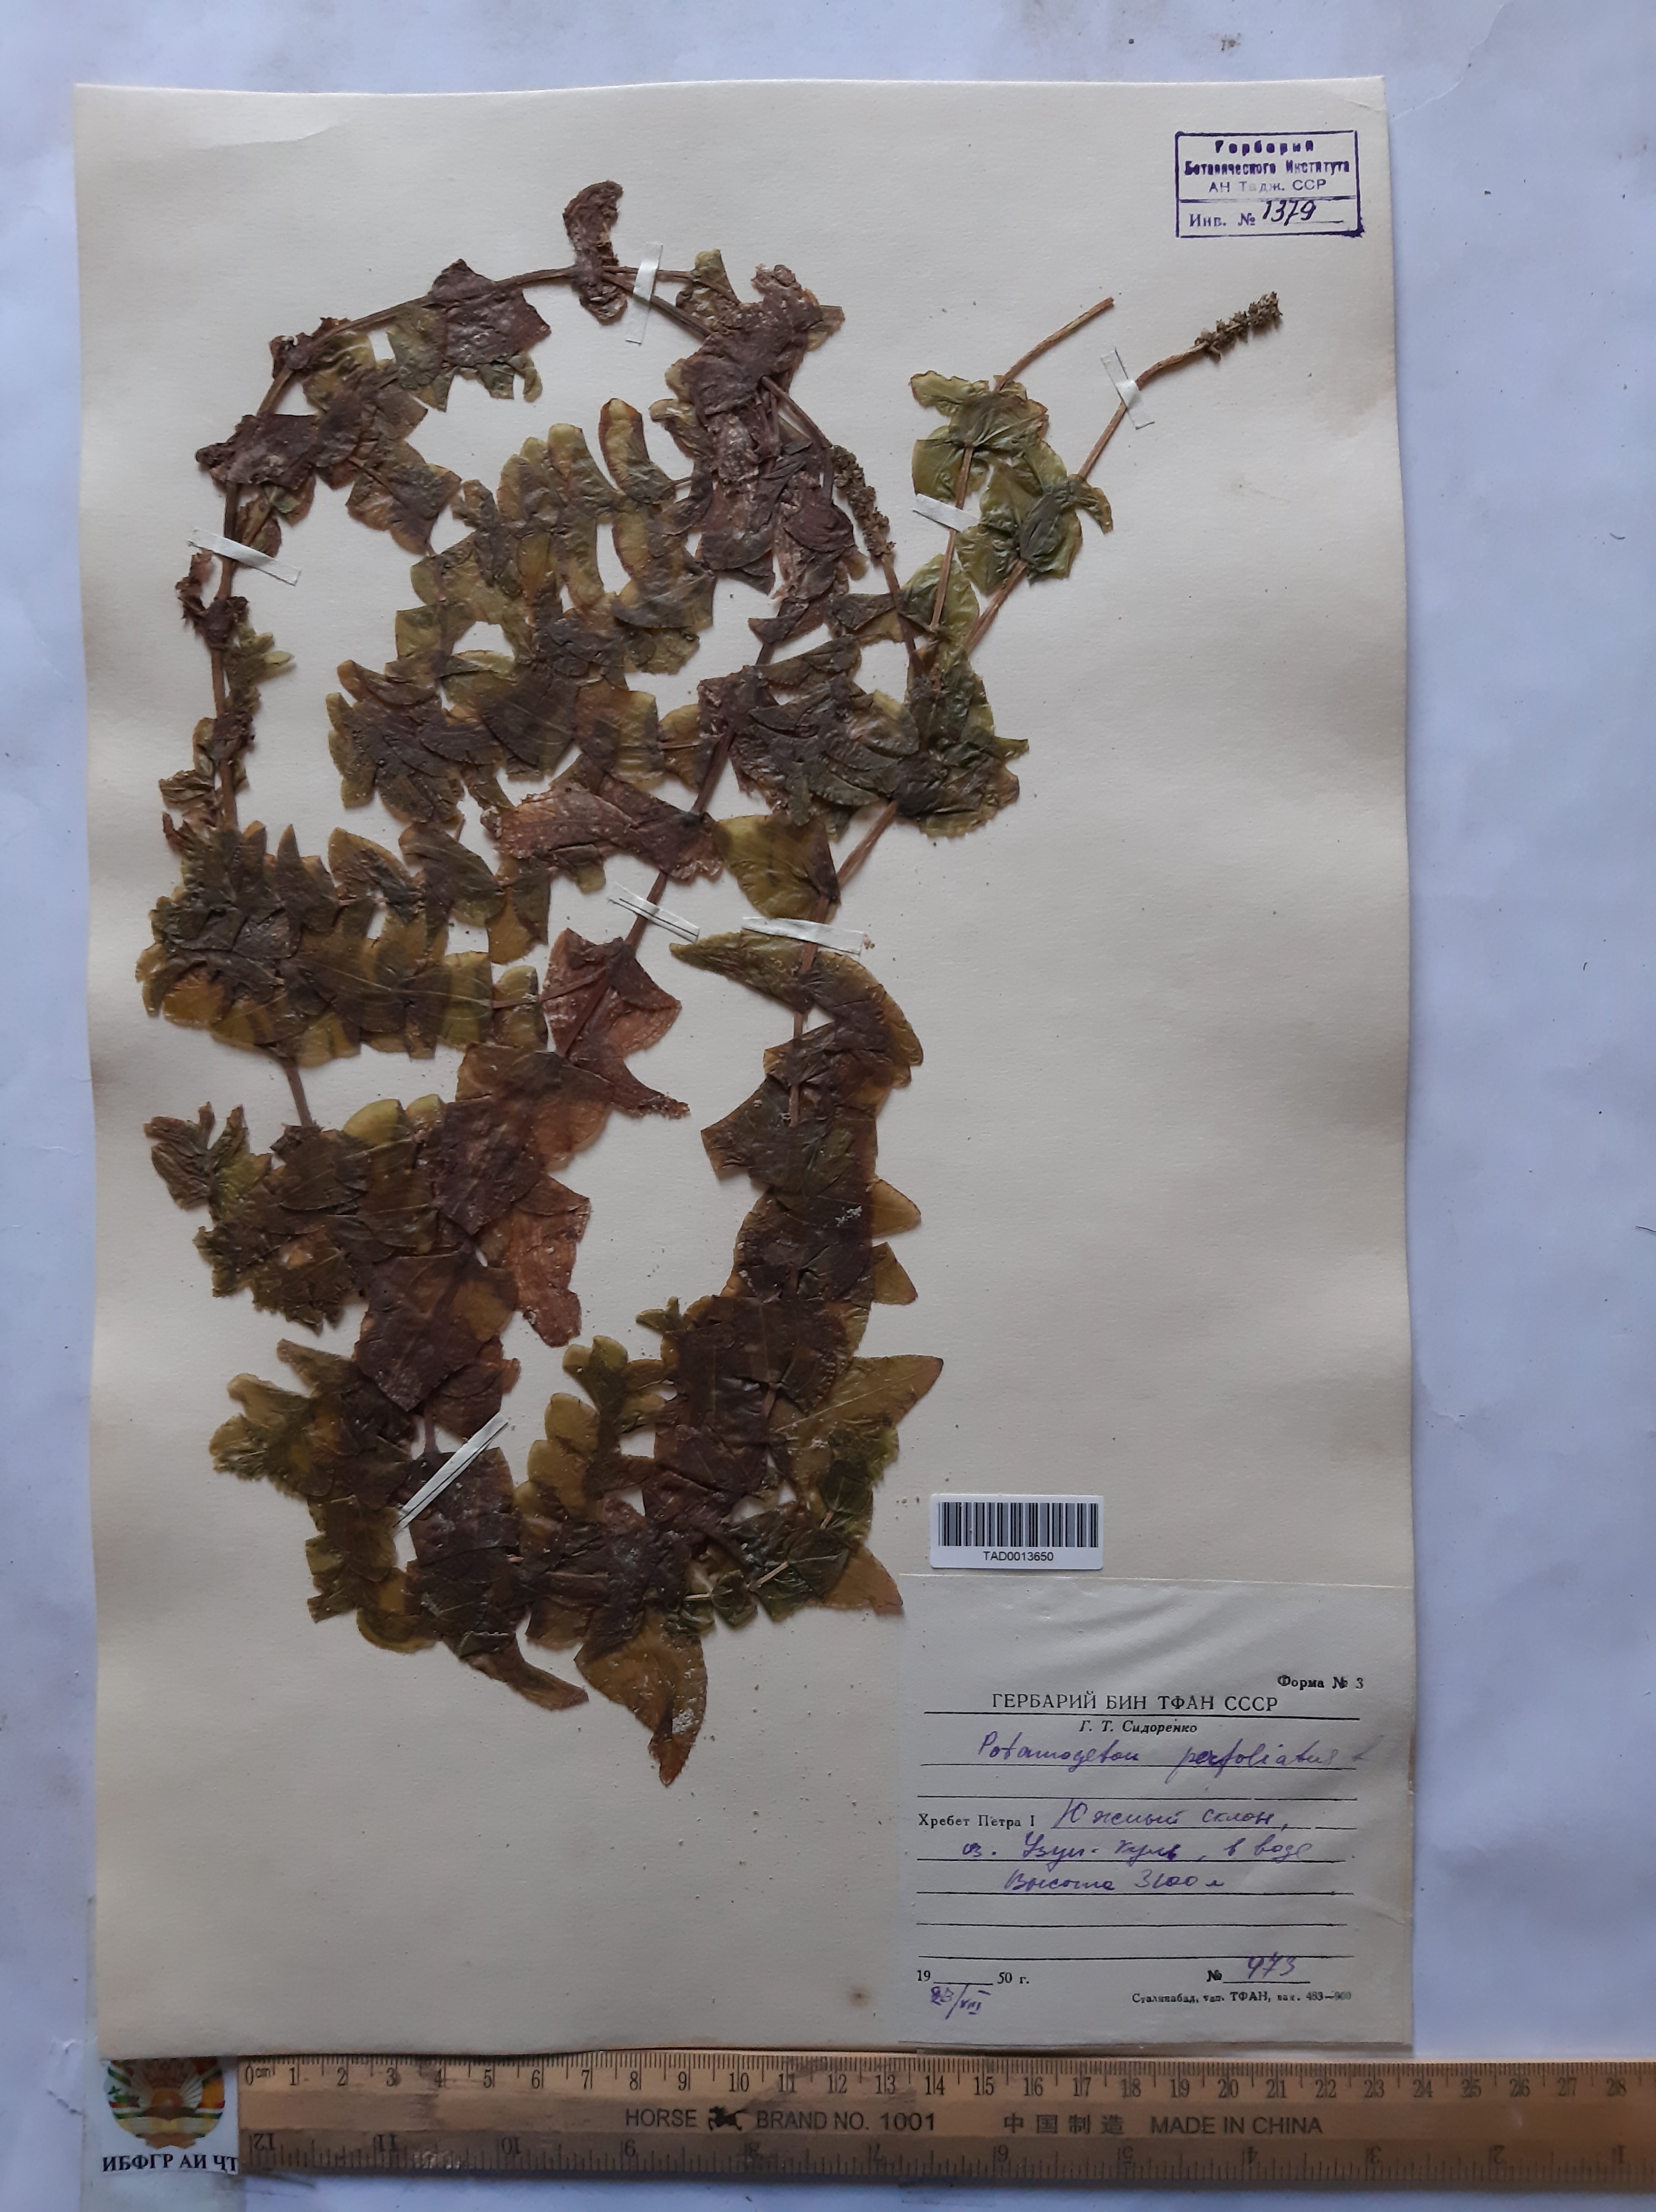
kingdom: Plantae
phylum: Tracheophyta
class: Liliopsida
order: Alismatales
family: Potamogetonaceae
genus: Potamogeton
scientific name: Potamogeton perfoliatus
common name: Perfoliate pondweed
